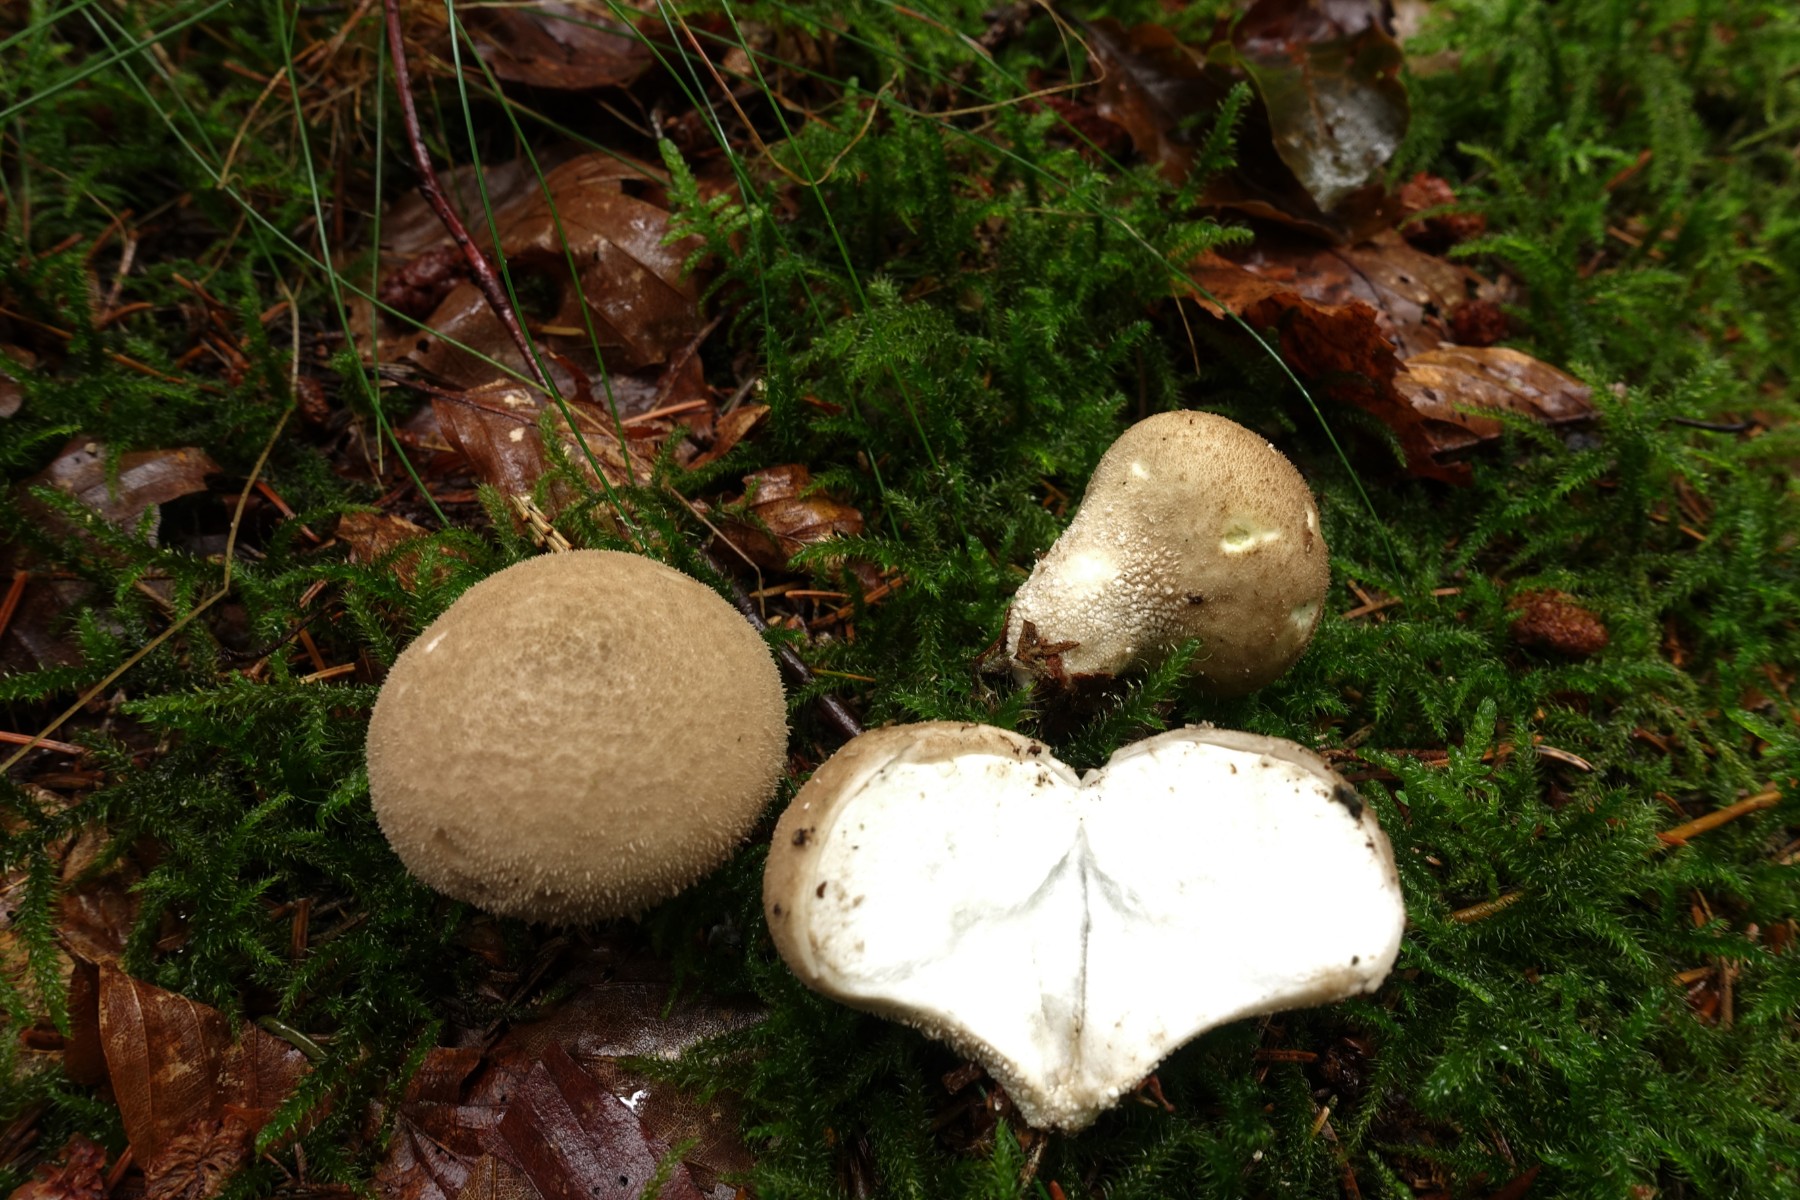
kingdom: Fungi
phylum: Basidiomycota
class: Agaricomycetes
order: Agaricales
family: Lycoperdaceae
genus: Lycoperdon
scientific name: Lycoperdon pratense
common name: flad støvbold
